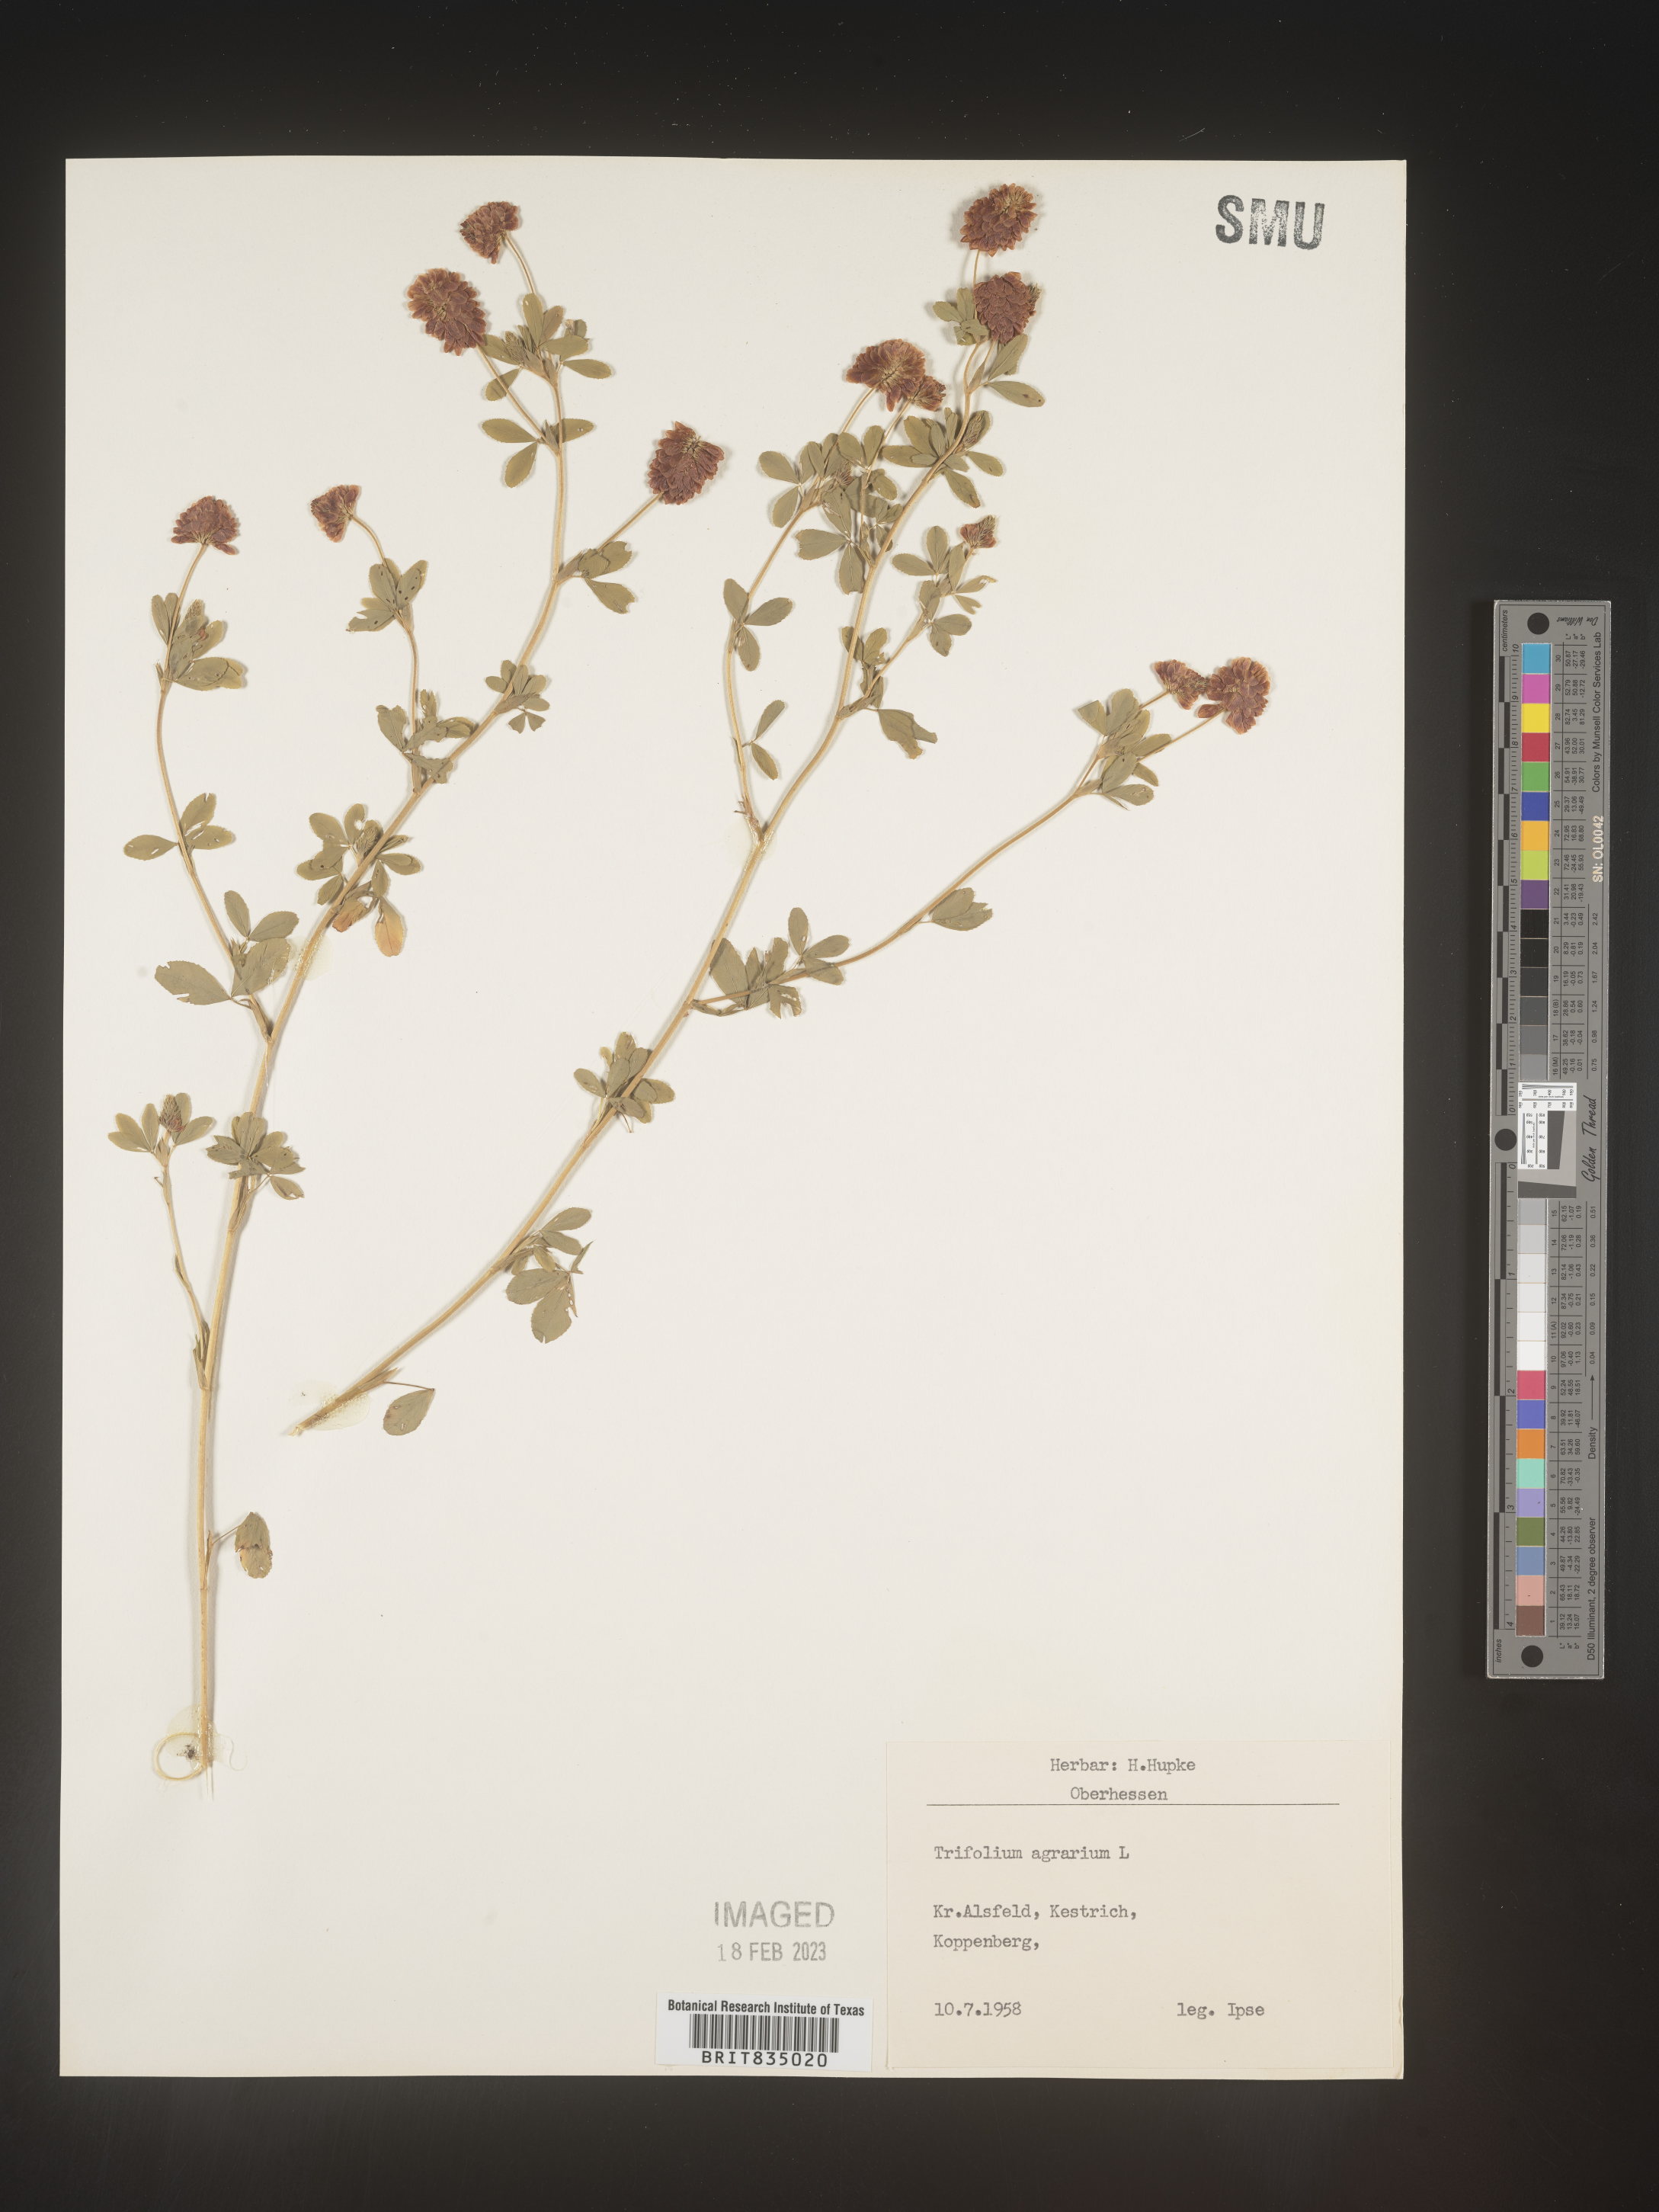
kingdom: Plantae
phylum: Tracheophyta
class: Magnoliopsida
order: Fabales
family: Fabaceae
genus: Trifolium
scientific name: Trifolium
